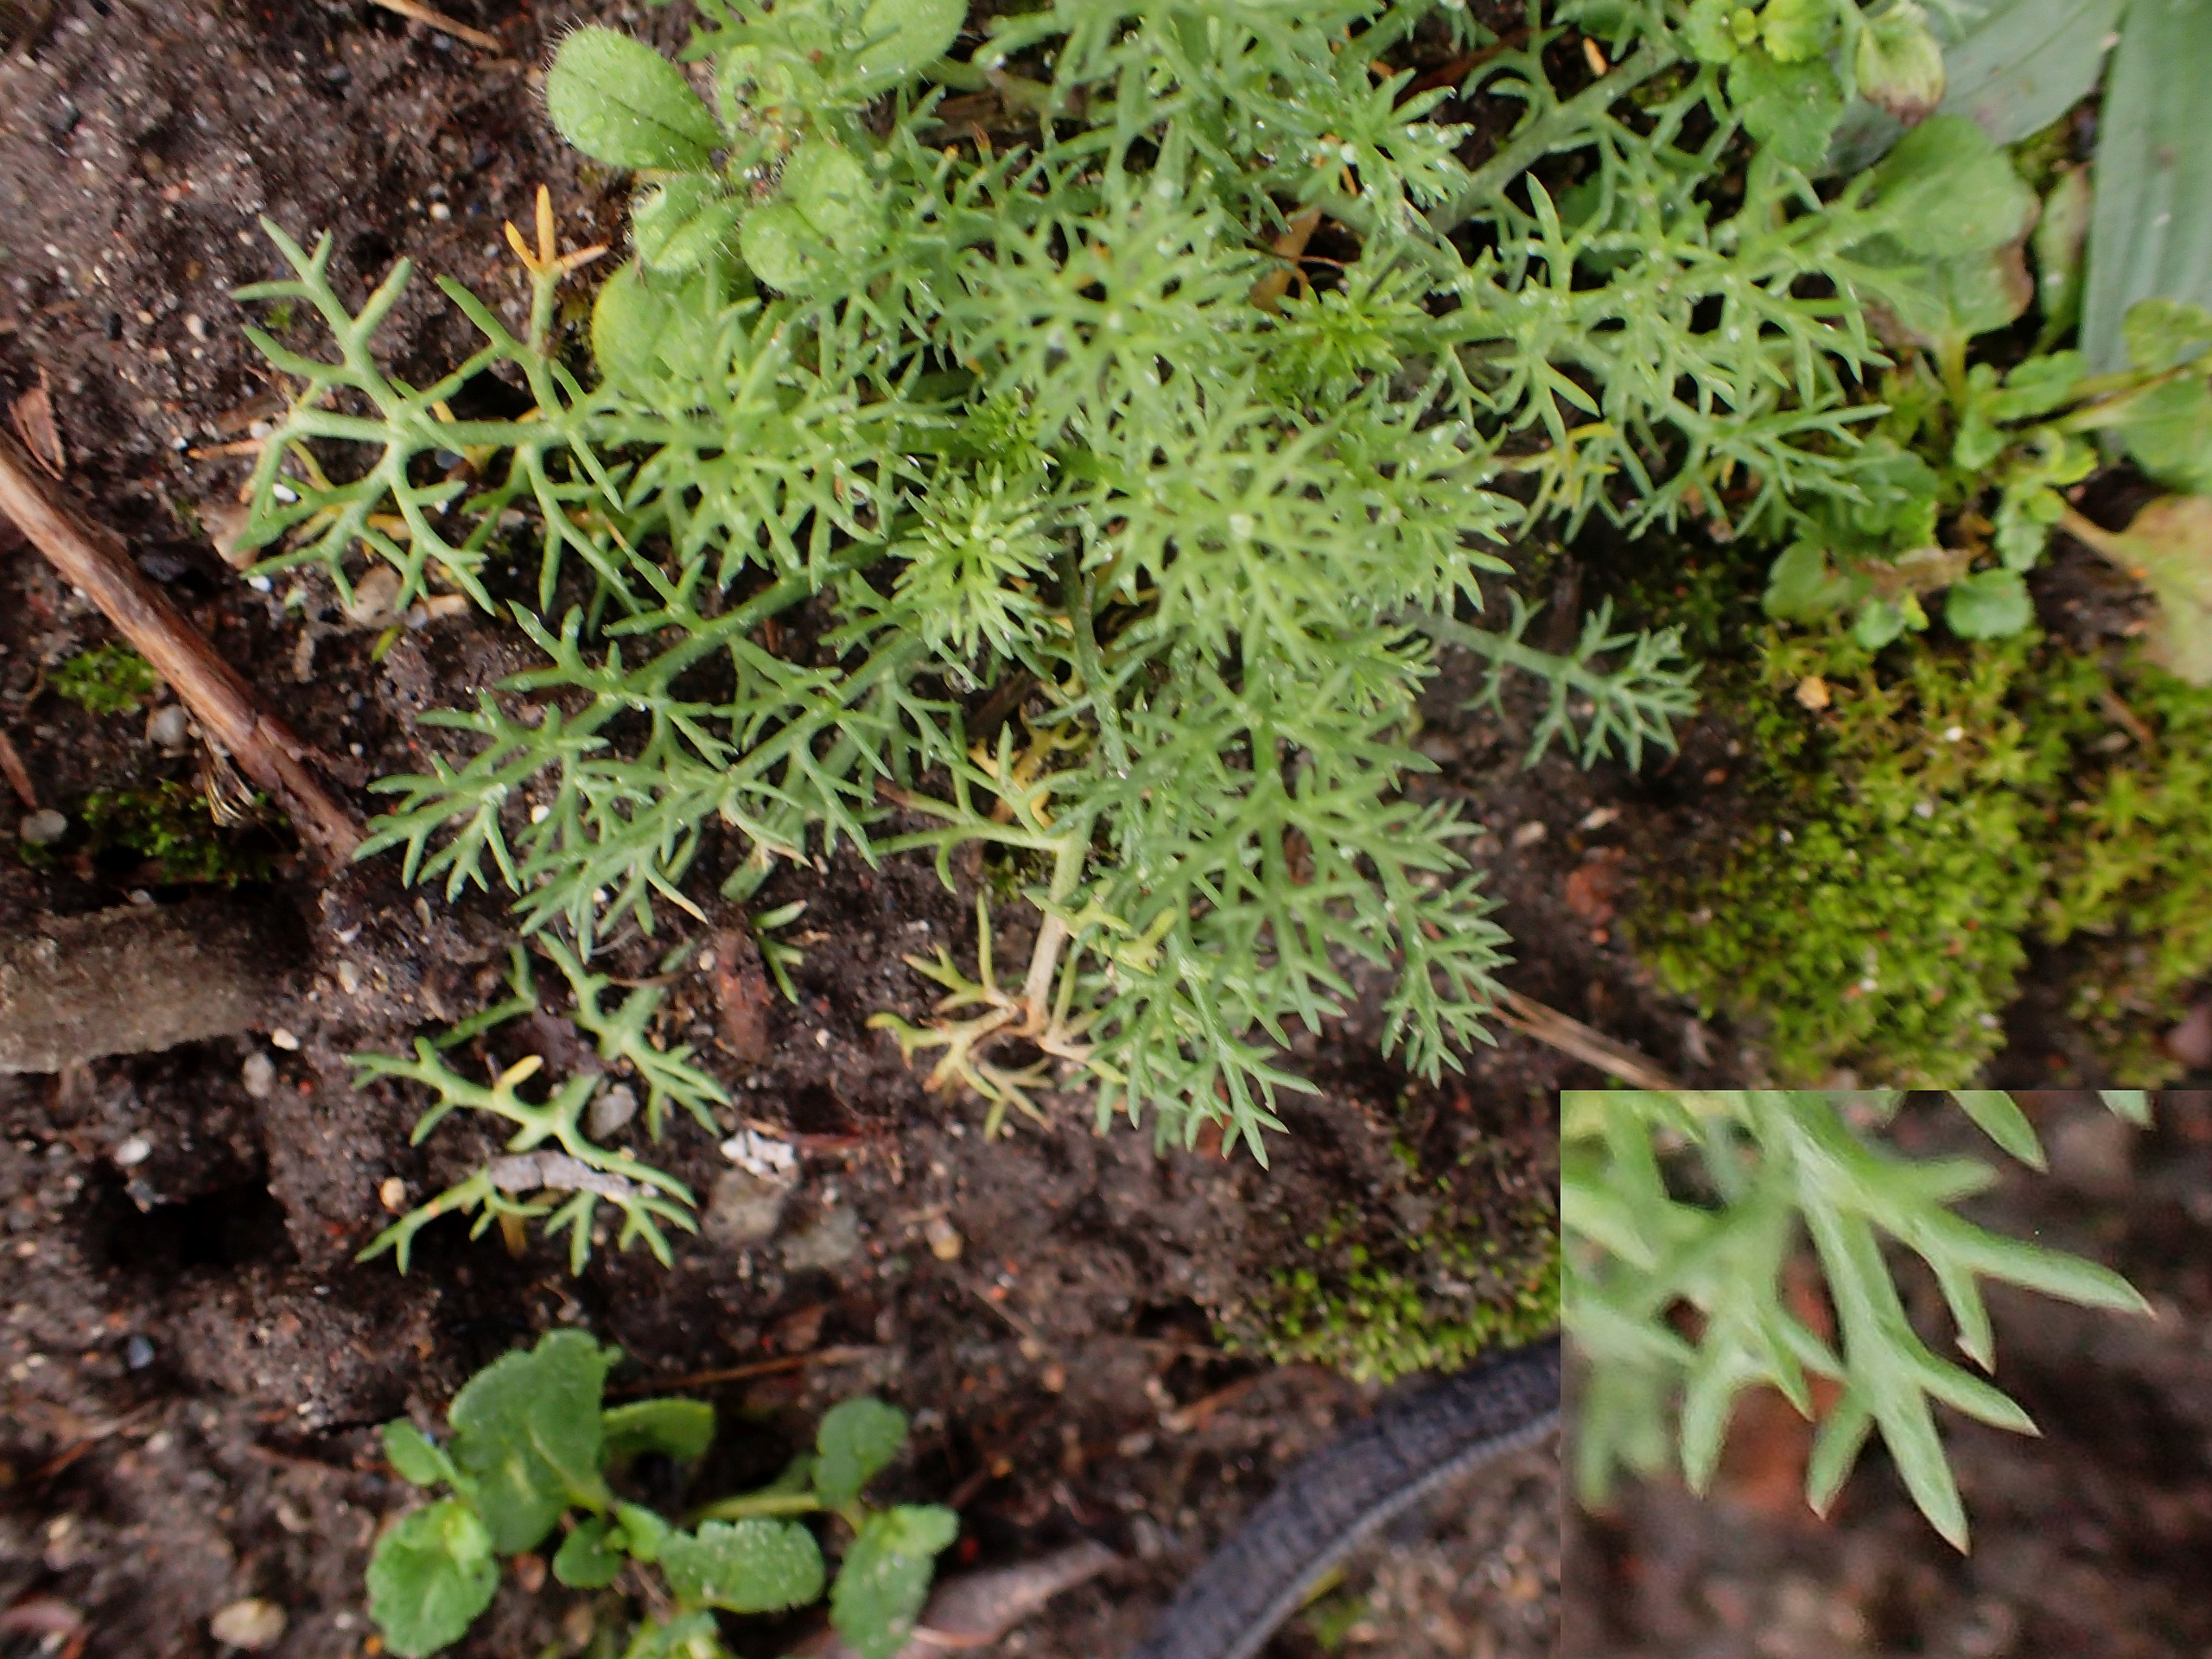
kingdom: Plantae
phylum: Tracheophyta
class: Magnoliopsida
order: Asterales
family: Asteraceae
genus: Tripleurospermum
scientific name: Tripleurospermum inodorum
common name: Lugtløs kamille
